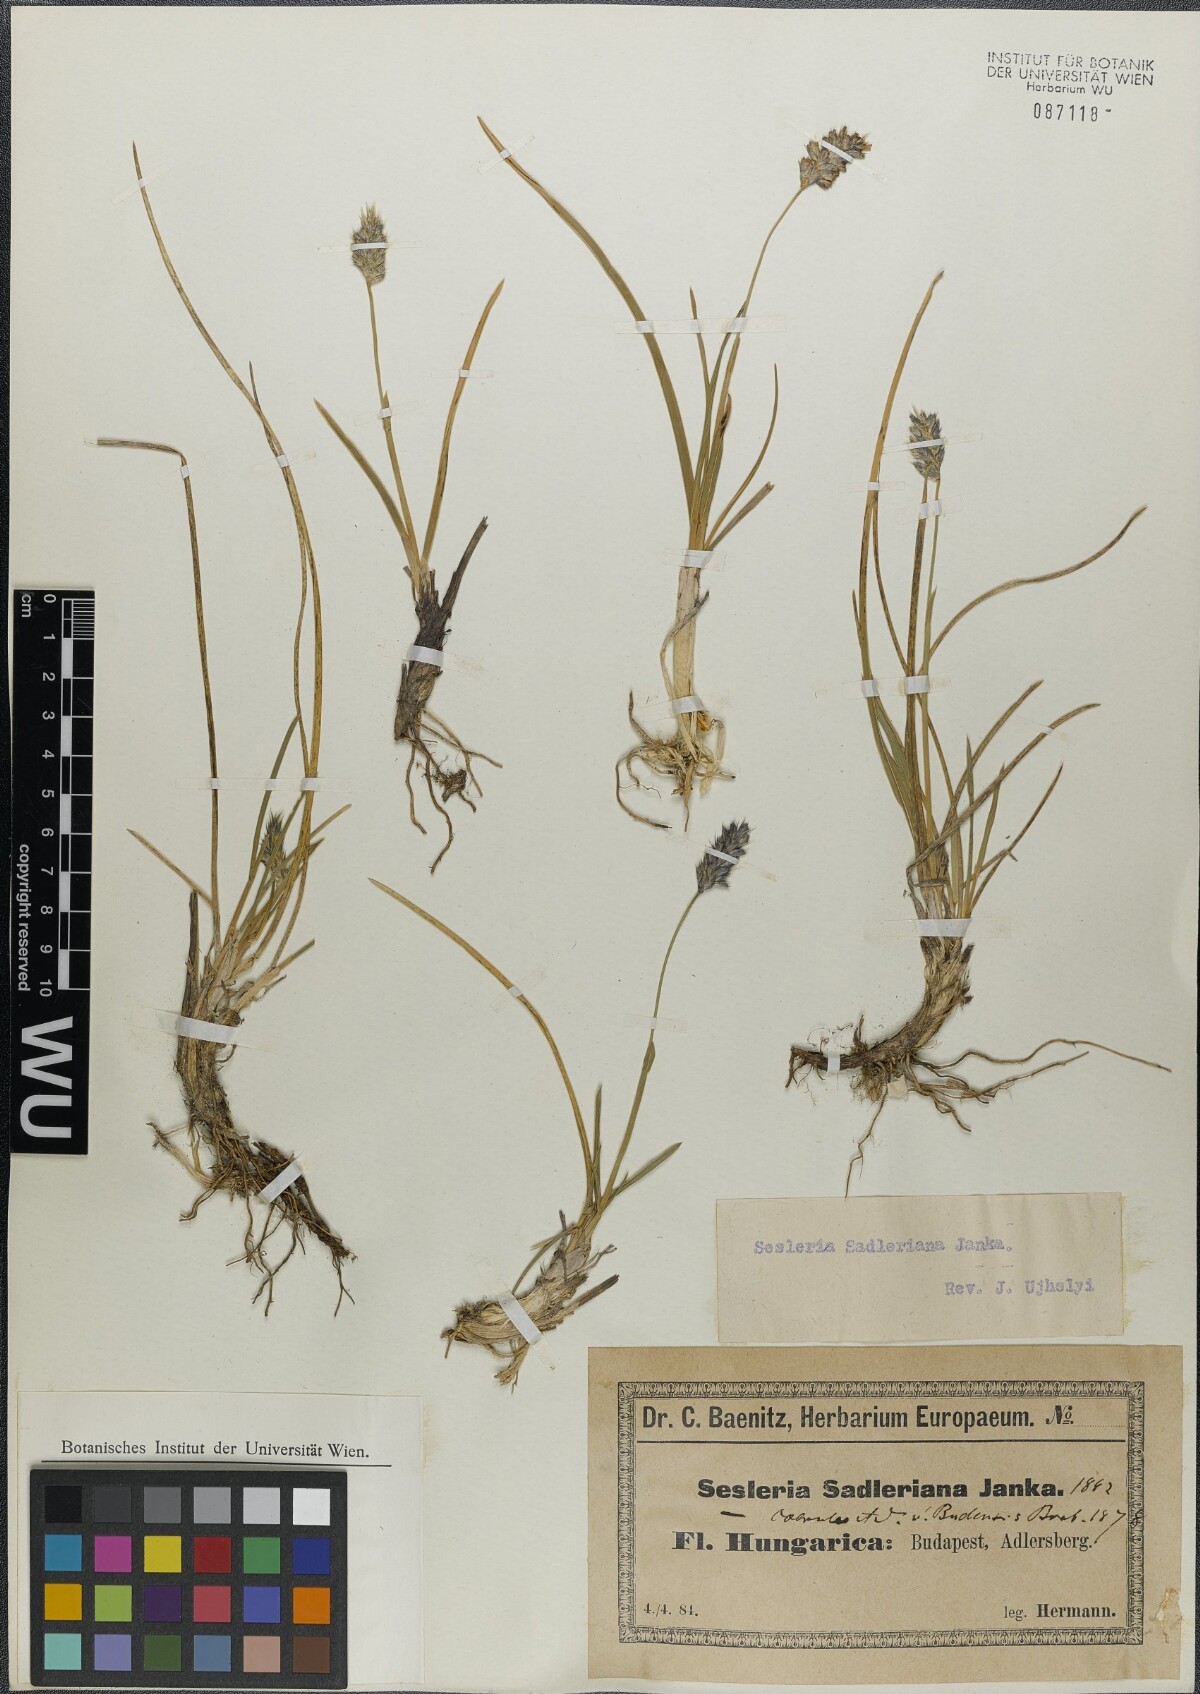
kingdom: Plantae
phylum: Tracheophyta
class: Liliopsida
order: Poales
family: Poaceae
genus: Sesleria
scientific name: Sesleria sadleriana
